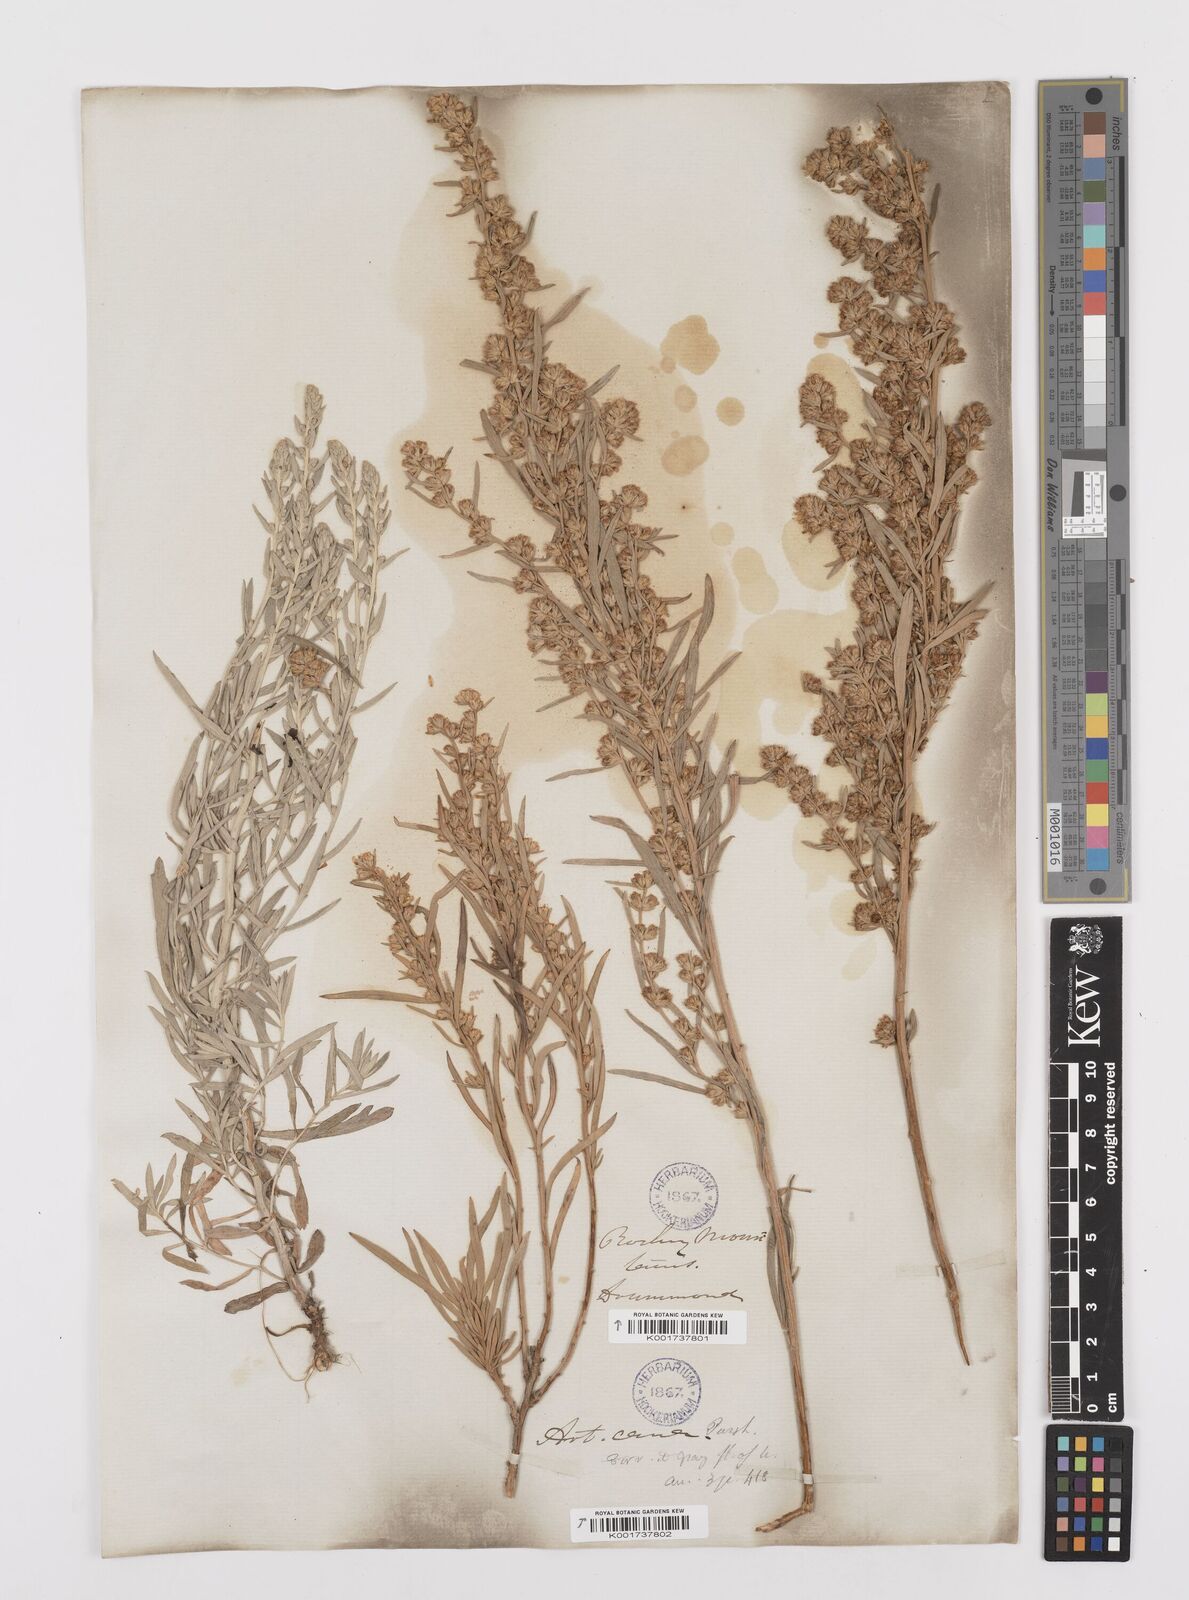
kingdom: Plantae
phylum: Tracheophyta
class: Magnoliopsida
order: Asterales
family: Asteraceae
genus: Artemisia
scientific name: Artemisia cana
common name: Silver sagebrush
